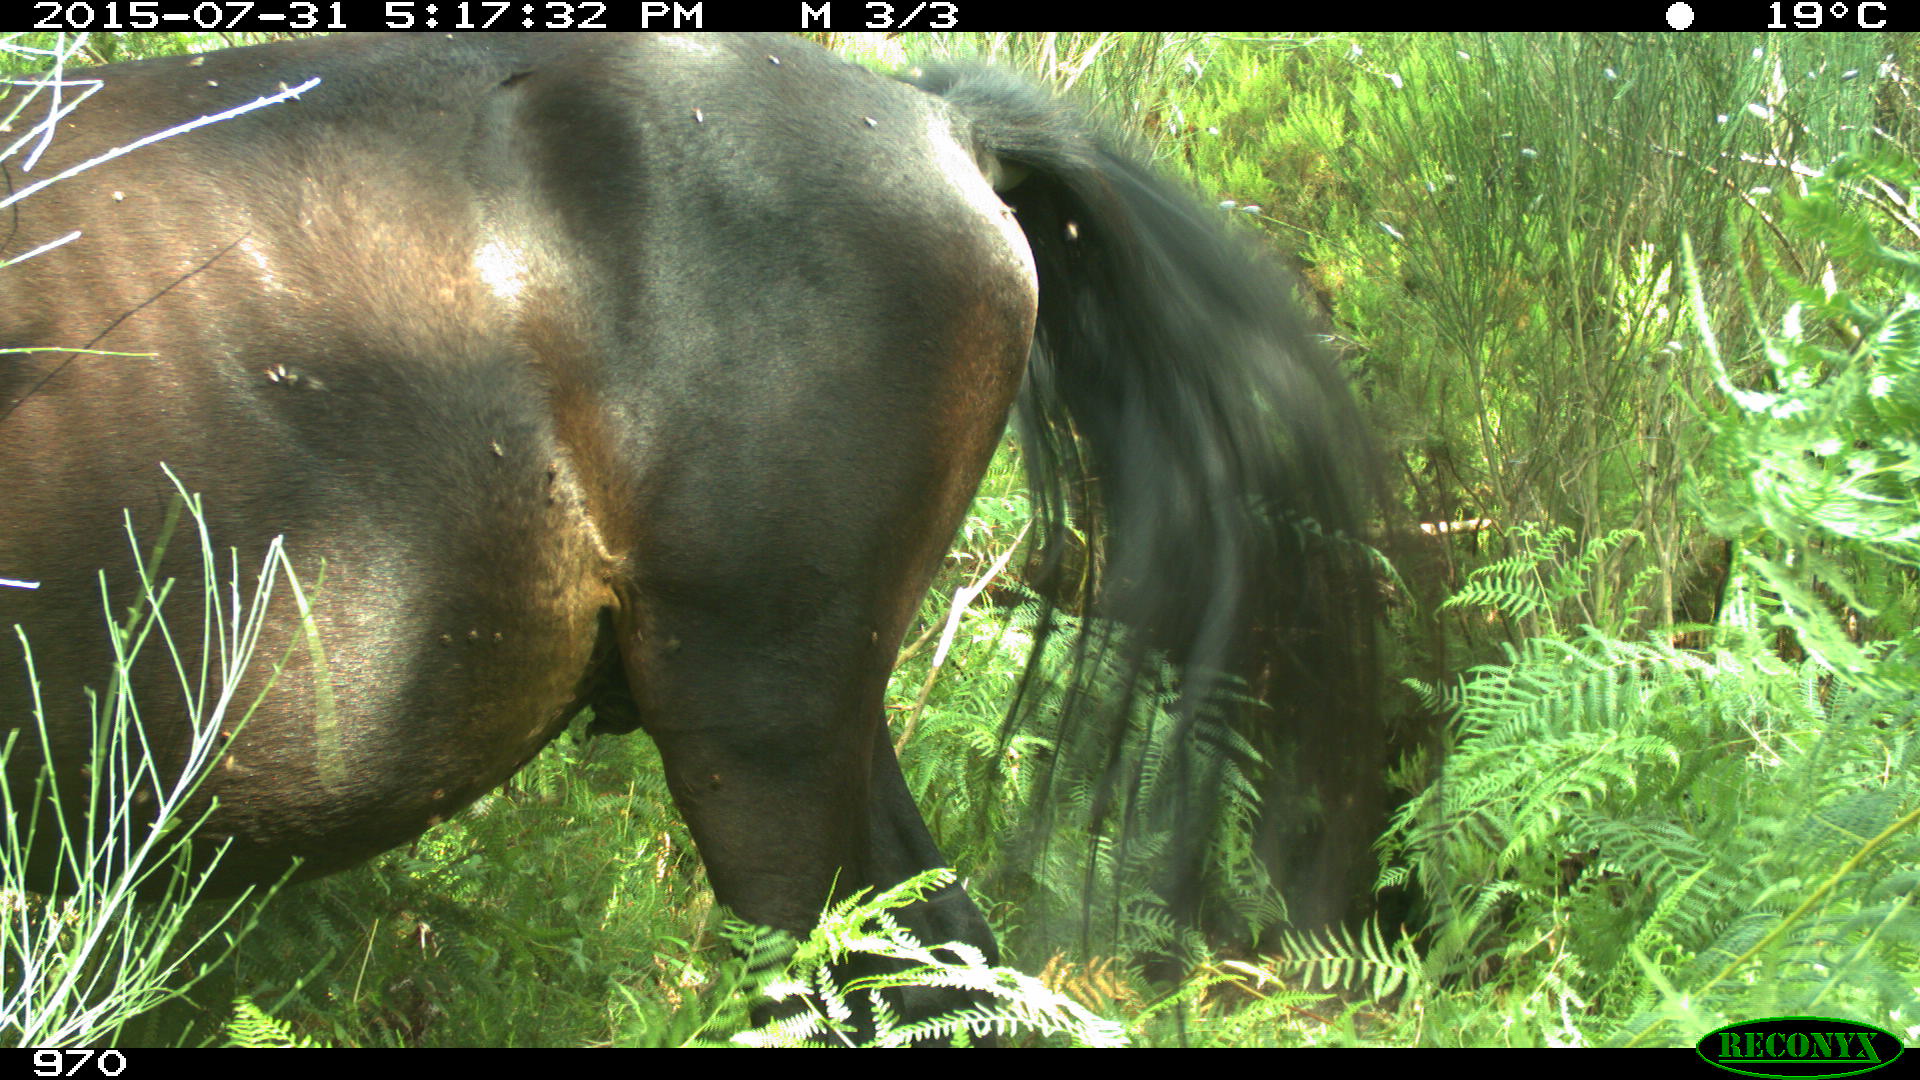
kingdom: Animalia
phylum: Chordata
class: Mammalia
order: Perissodactyla
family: Equidae
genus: Equus
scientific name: Equus caballus
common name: Horse
